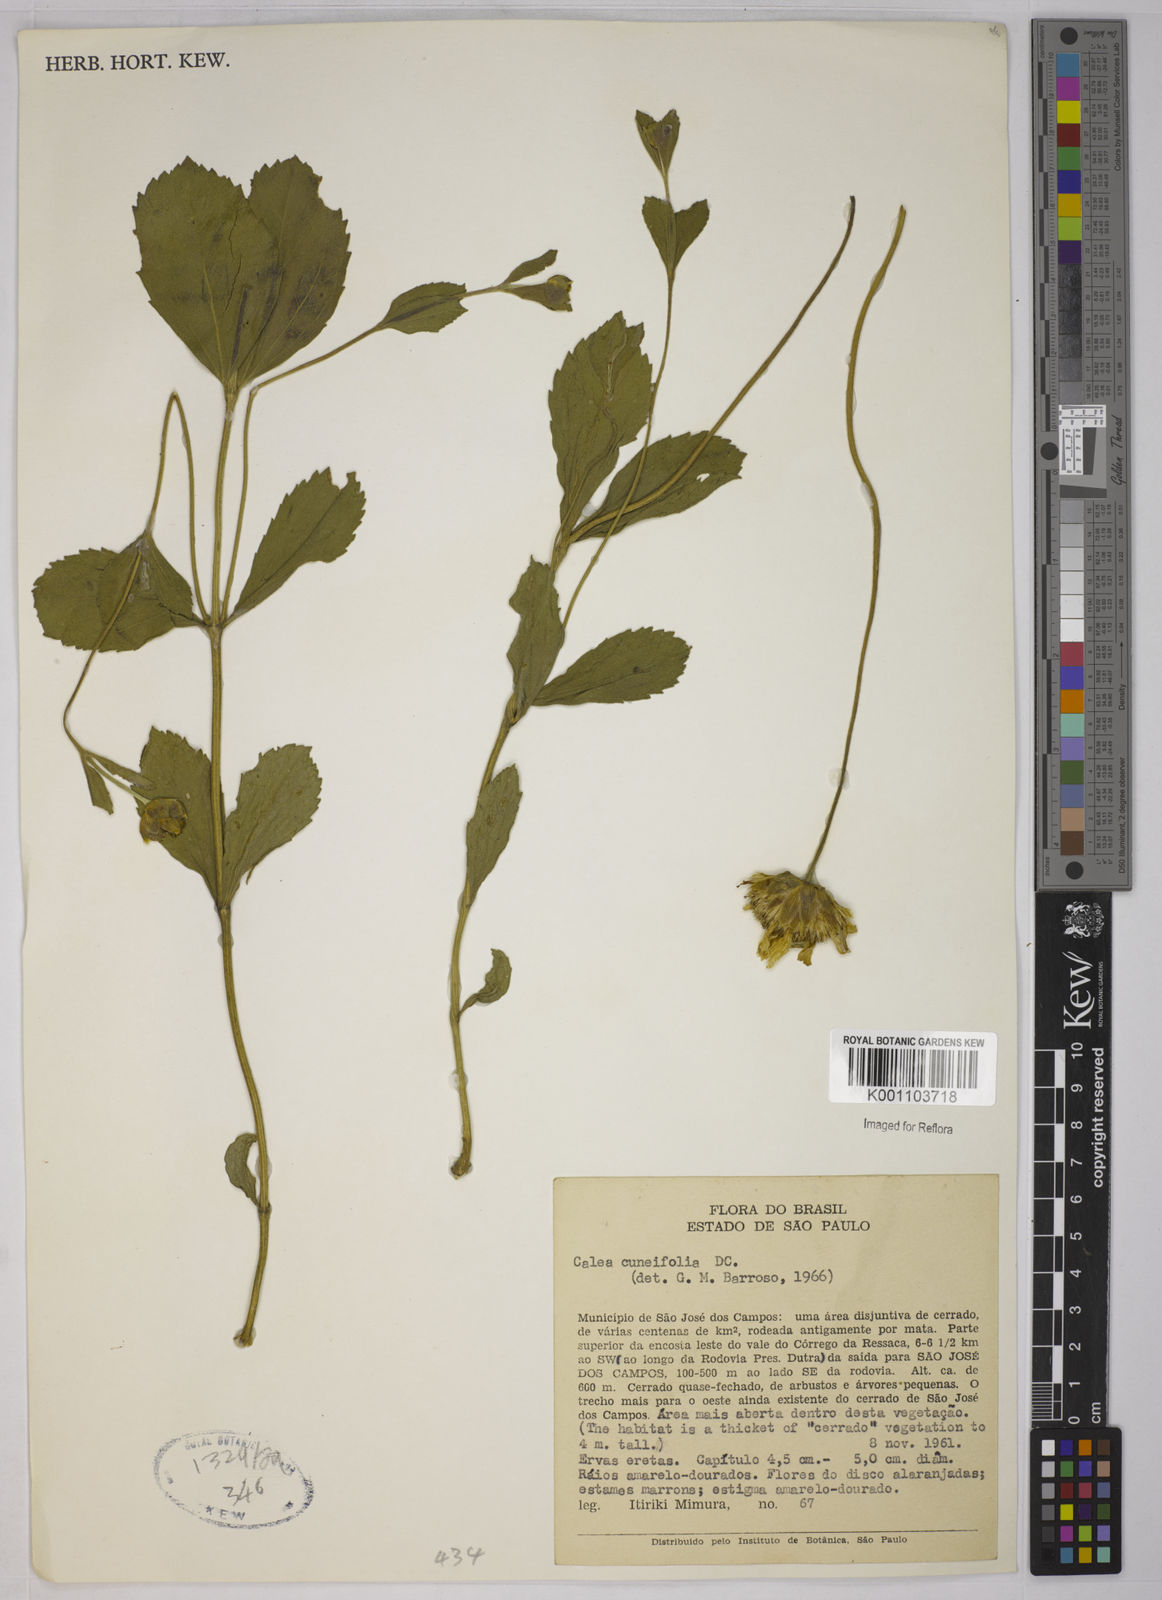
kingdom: Plantae
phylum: Tracheophyta
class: Magnoliopsida
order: Asterales
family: Asteraceae
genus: Calea
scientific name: Calea cuneifolia
